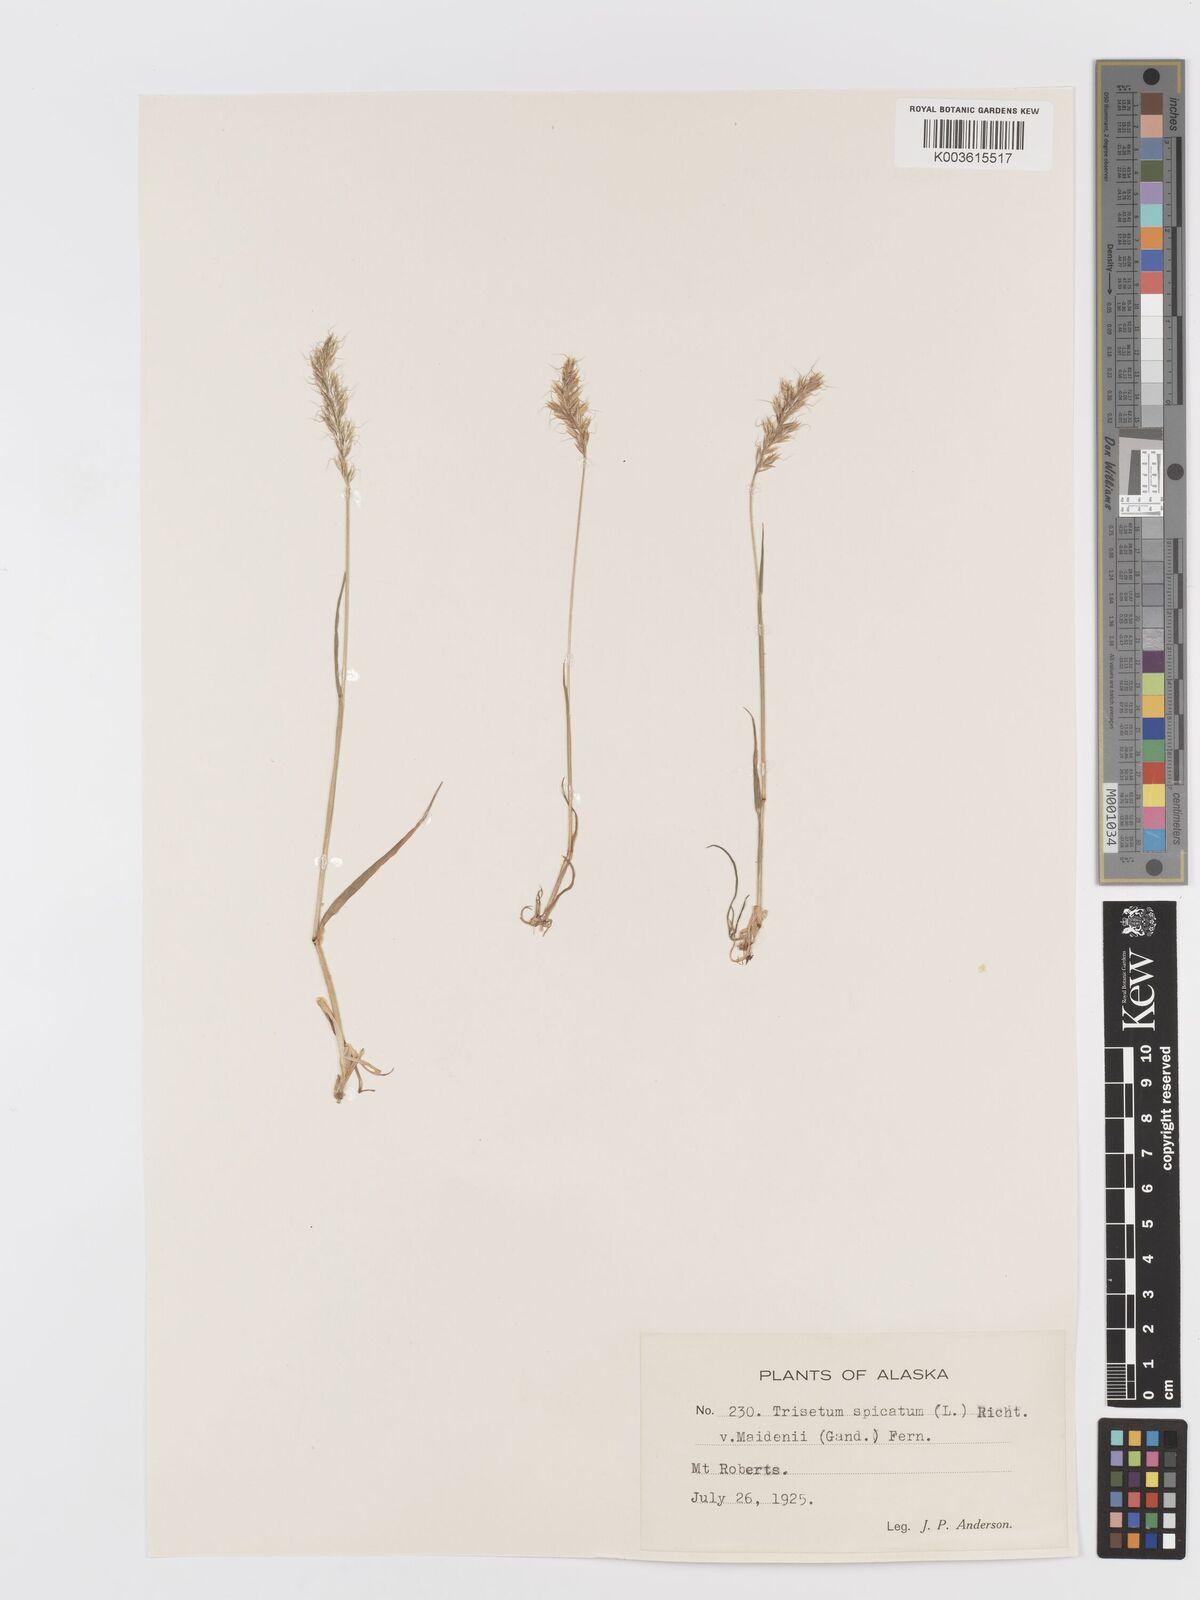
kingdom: Plantae
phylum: Tracheophyta
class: Liliopsida
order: Poales
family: Poaceae
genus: Koeleria
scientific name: Koeleria spicata
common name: Mountain trisetum
